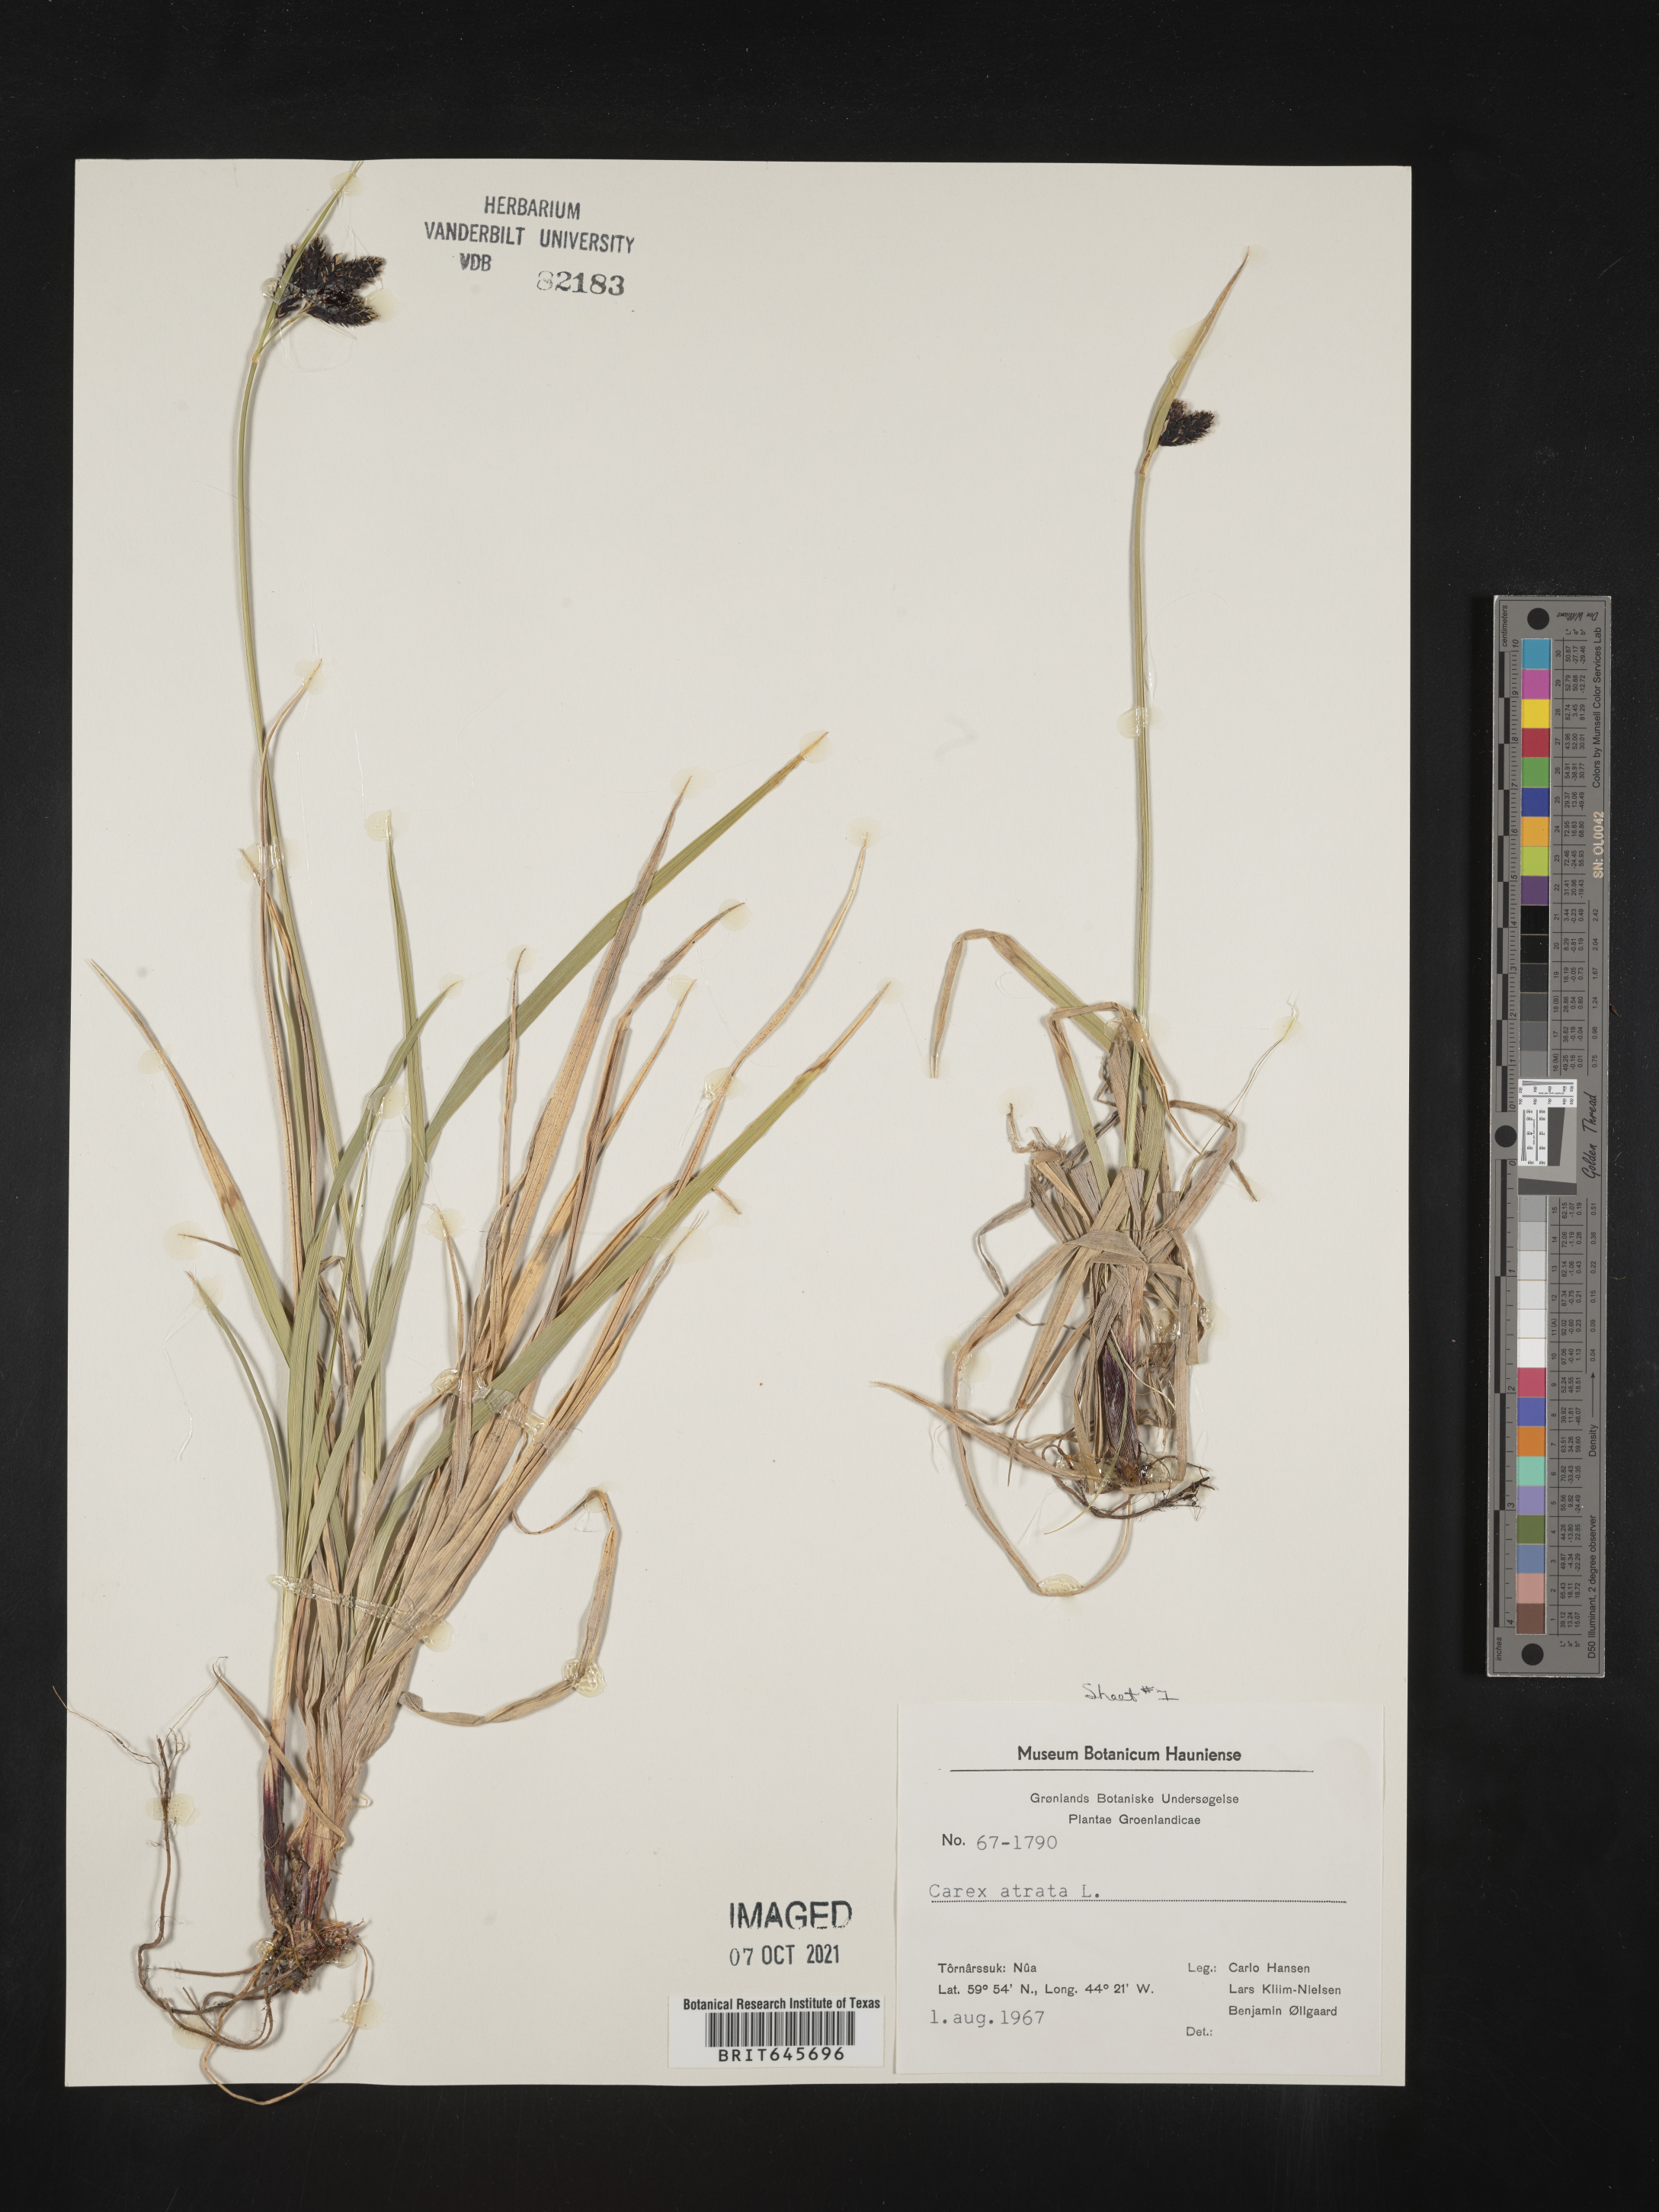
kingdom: Plantae
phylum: Tracheophyta
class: Liliopsida
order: Poales
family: Cyperaceae
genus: Carex
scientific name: Carex atrata
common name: Black alpine sedge
